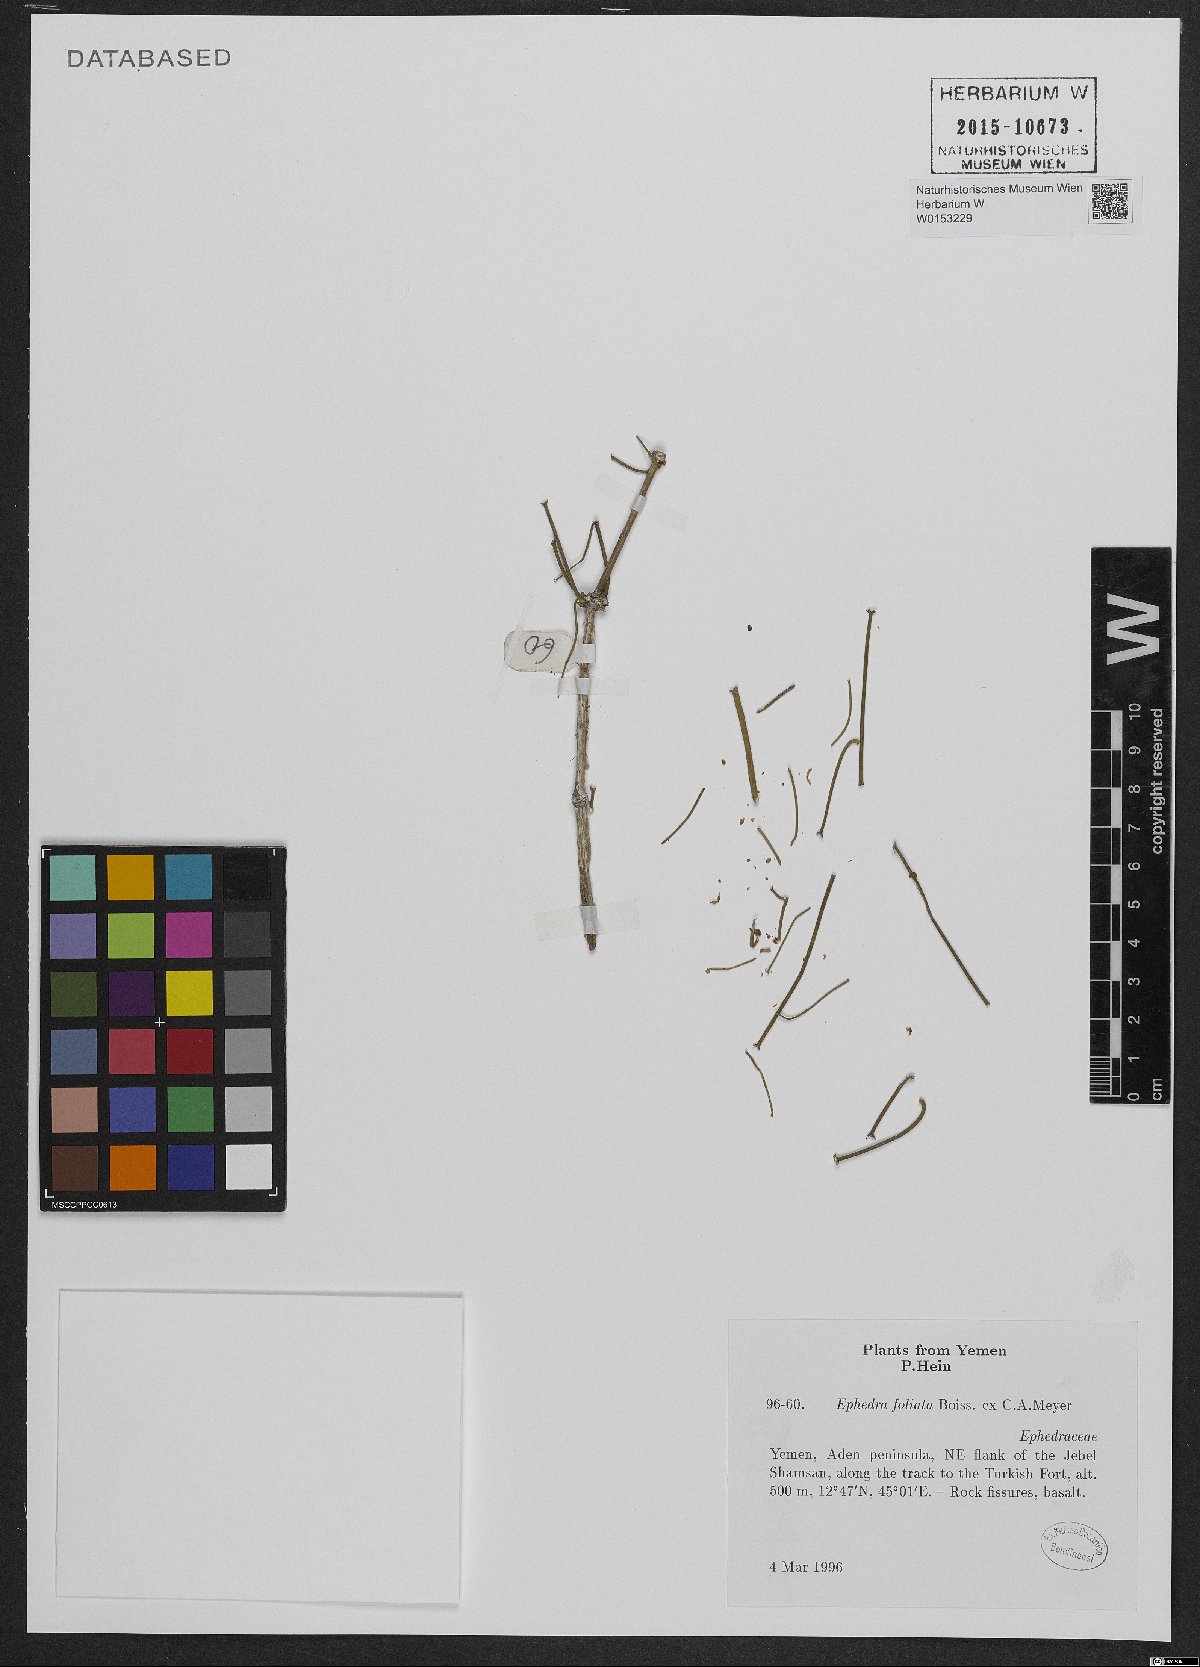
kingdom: Plantae
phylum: Tracheophyta
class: Gnetopsida
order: Ephedrales
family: Ephedraceae
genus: Ephedra
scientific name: Ephedra ciliata
